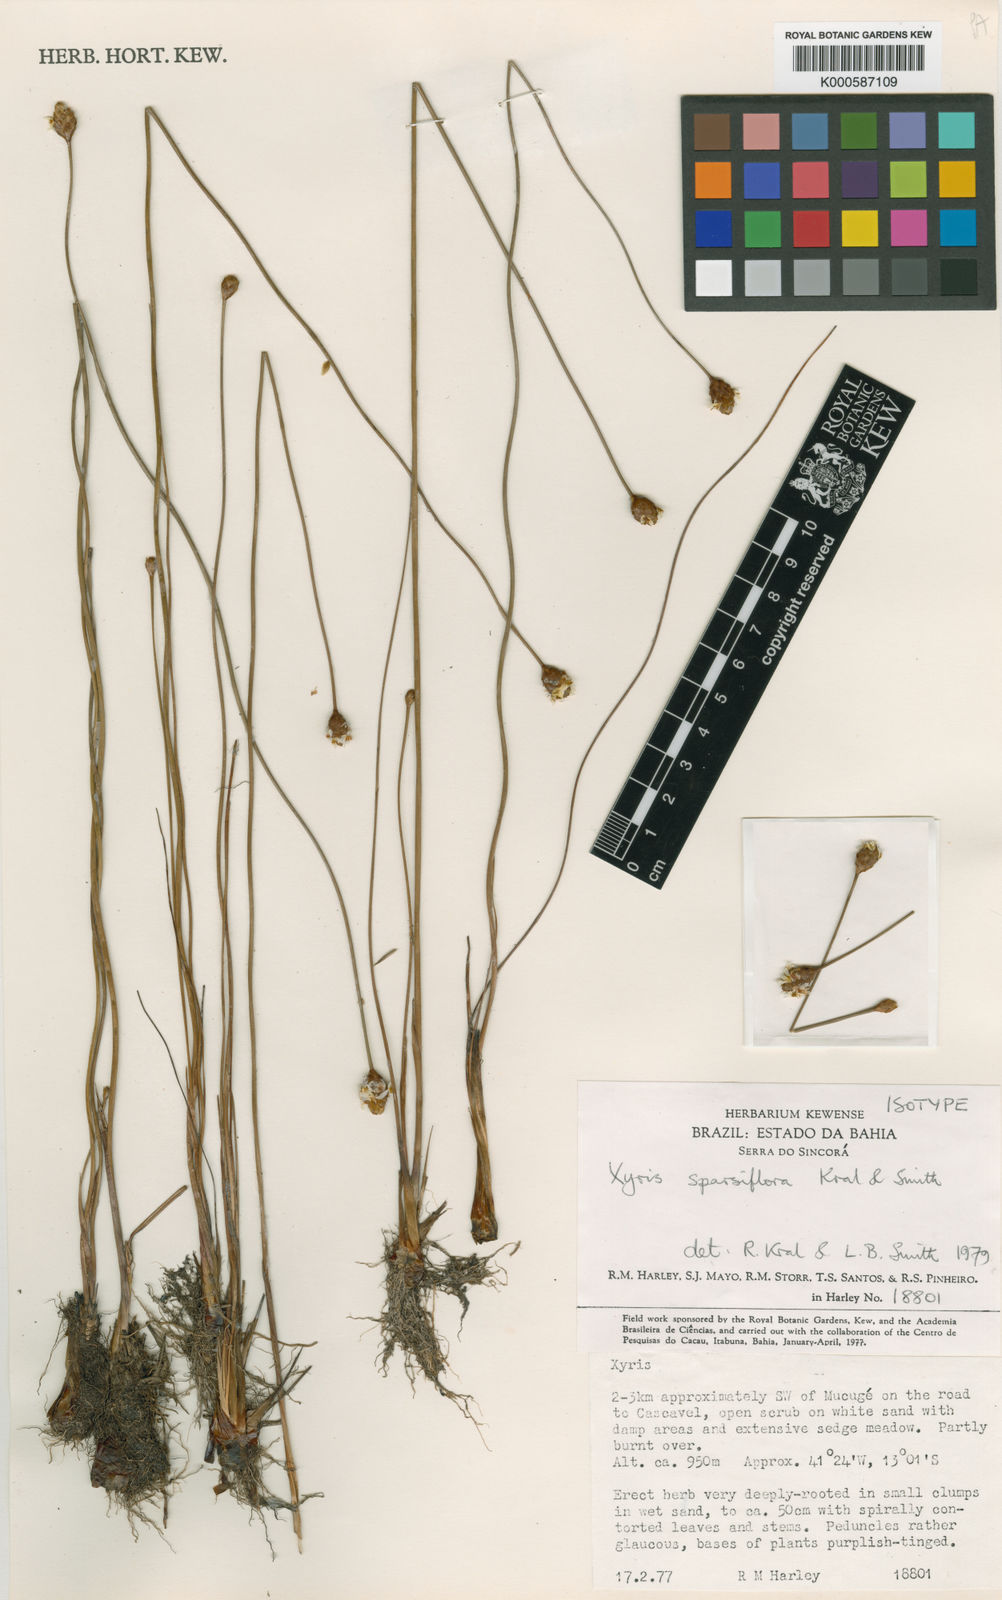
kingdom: Plantae
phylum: Tracheophyta
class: Liliopsida
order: Poales
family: Xyridaceae
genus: Xyris
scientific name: Xyris
